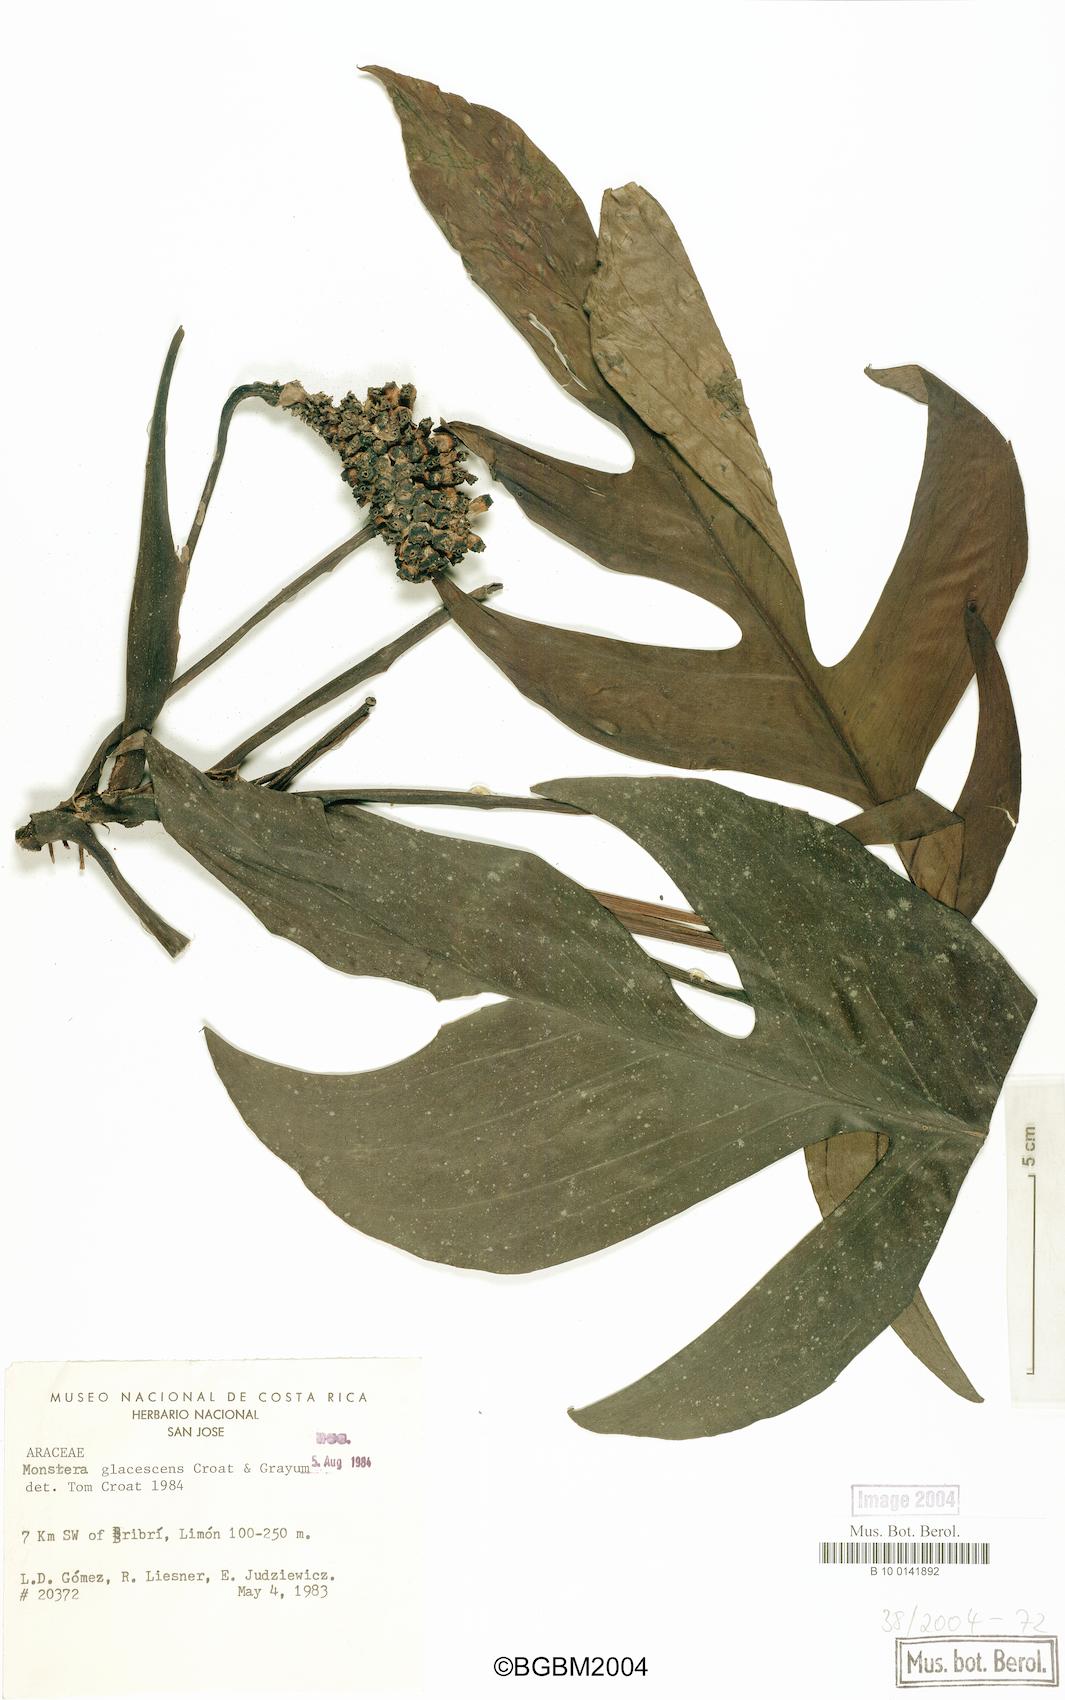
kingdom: Plantae
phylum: Tracheophyta
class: Liliopsida
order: Alismatales
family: Araceae
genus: Monstera
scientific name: Monstera glaucescens
